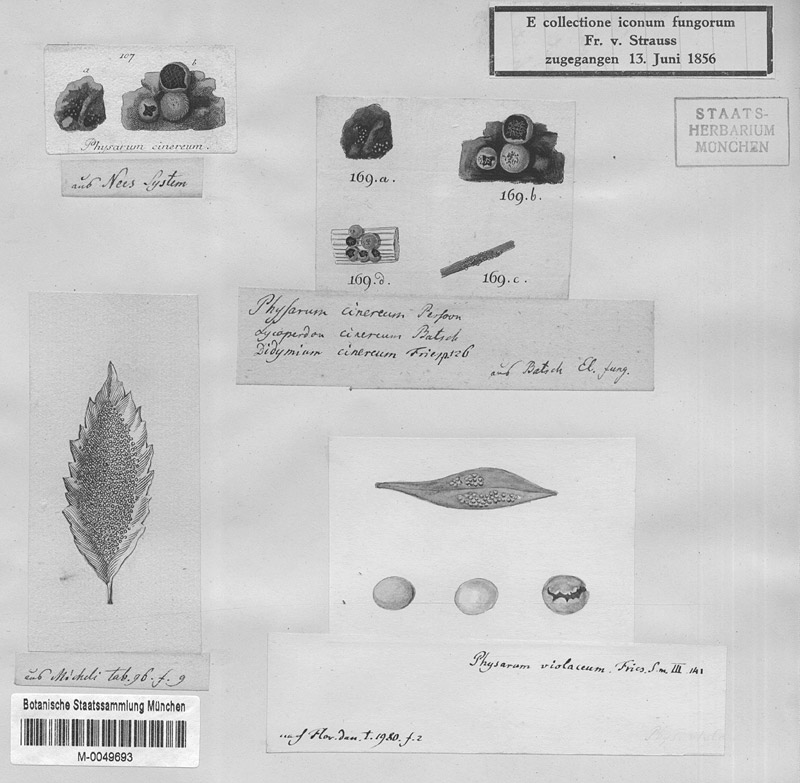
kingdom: Protozoa
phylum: Mycetozoa
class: Myxomycetes
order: Physarales
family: Physaraceae
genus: Physarum
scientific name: Physarum cinereum
